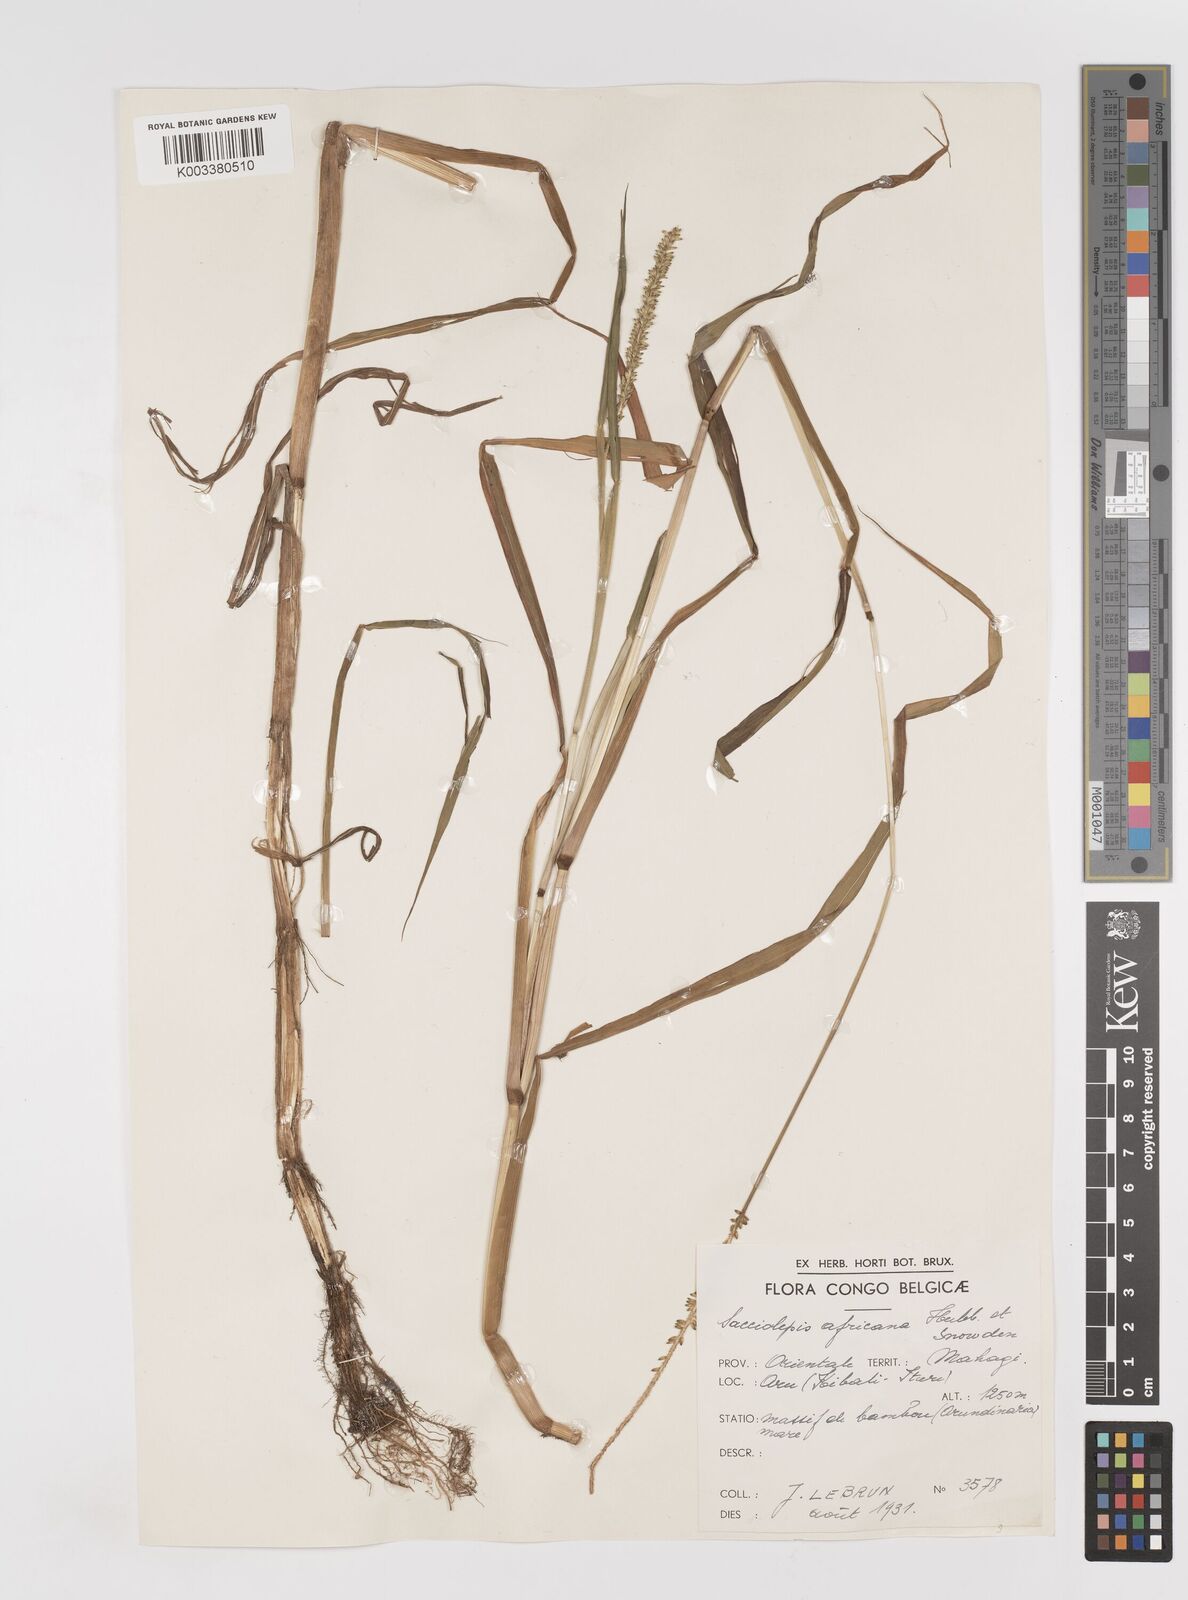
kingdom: Plantae
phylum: Tracheophyta
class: Liliopsida
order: Poales
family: Poaceae
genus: Sacciolepis
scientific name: Sacciolepis africana
